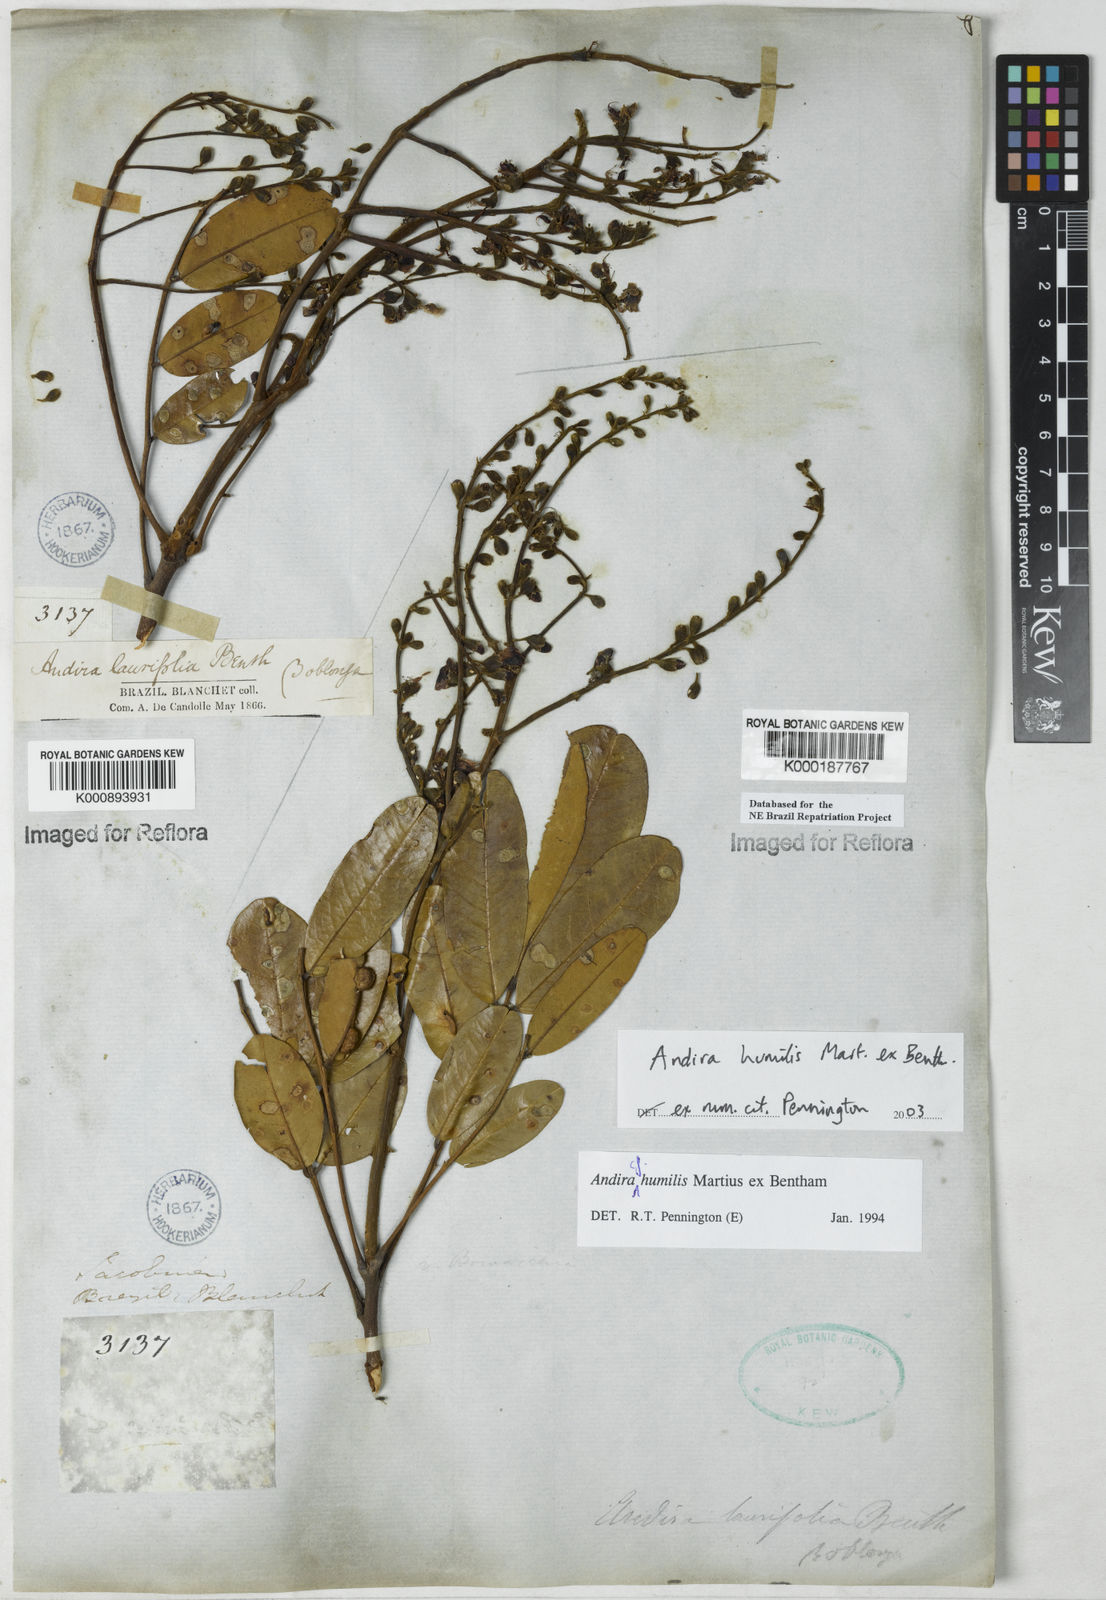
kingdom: Plantae
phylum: Tracheophyta
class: Magnoliopsida
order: Fabales
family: Fabaceae
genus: Andira
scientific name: Andira humilis
